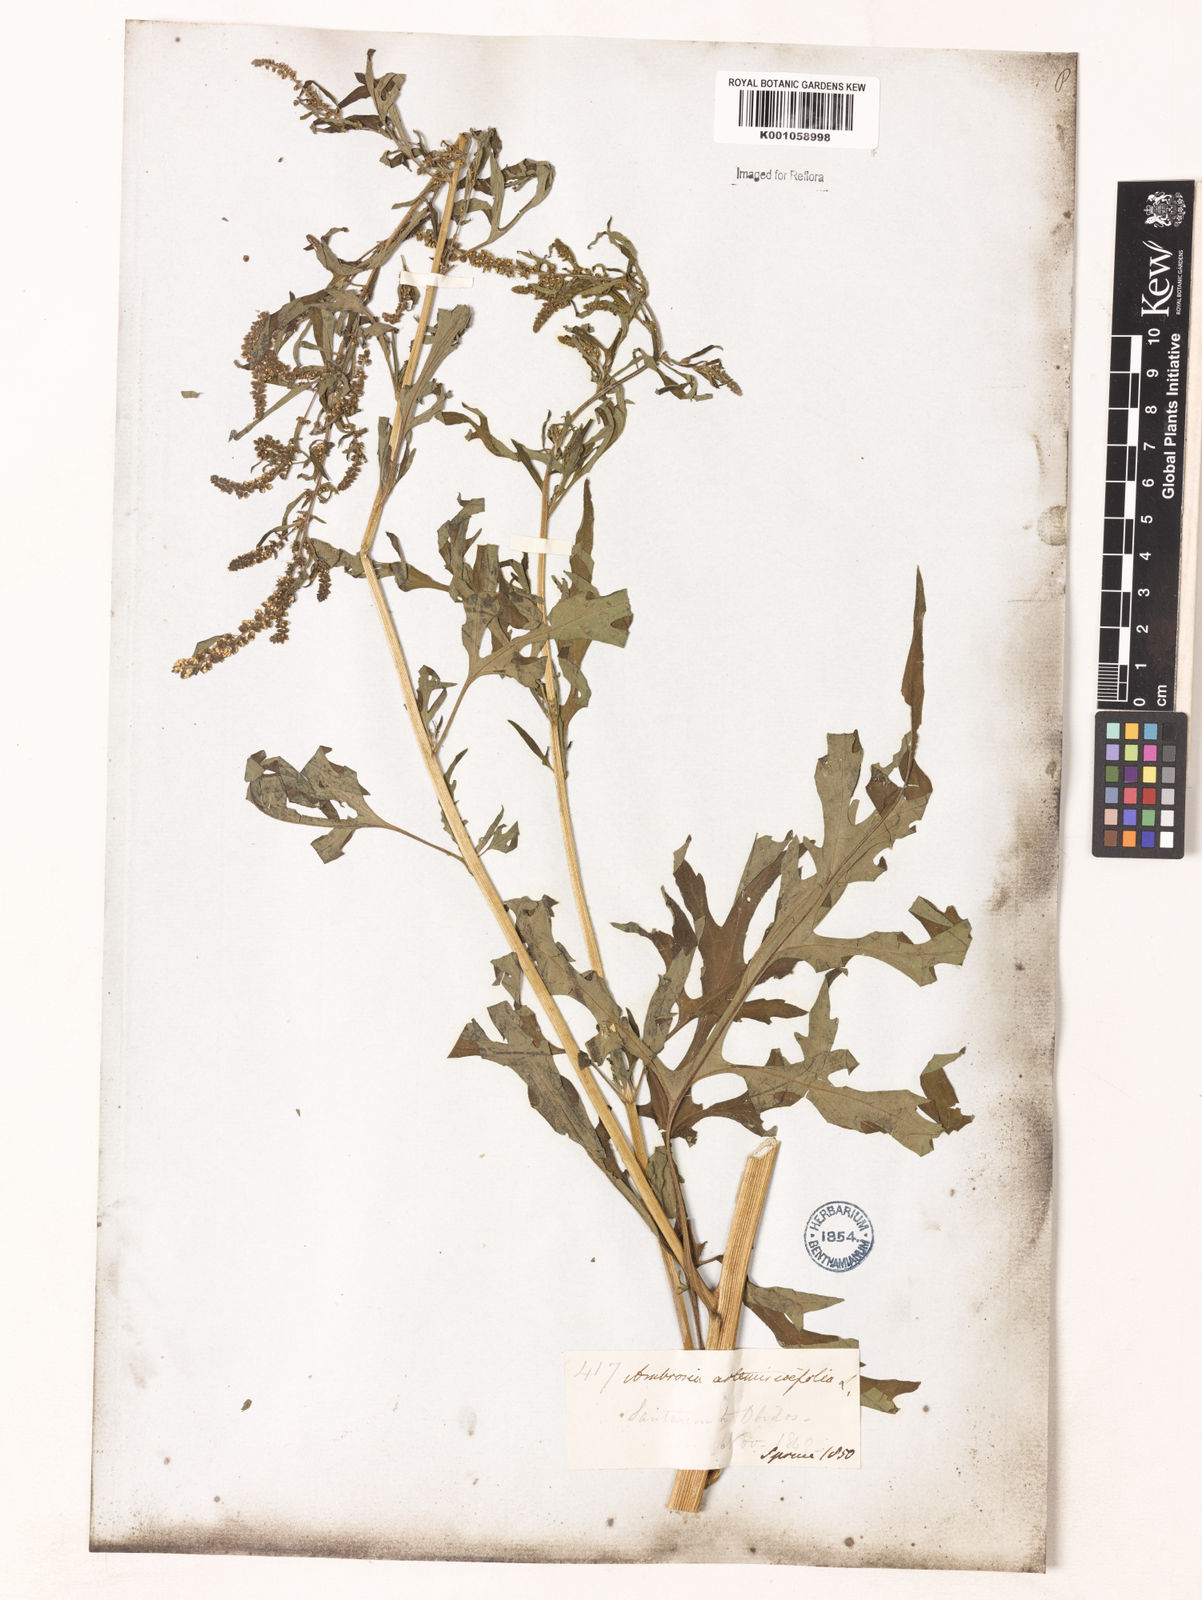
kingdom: Plantae
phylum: Tracheophyta
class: Magnoliopsida
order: Asterales
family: Asteraceae
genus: Ambrosia
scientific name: Ambrosia artemisiifolia
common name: Annual ragweed
